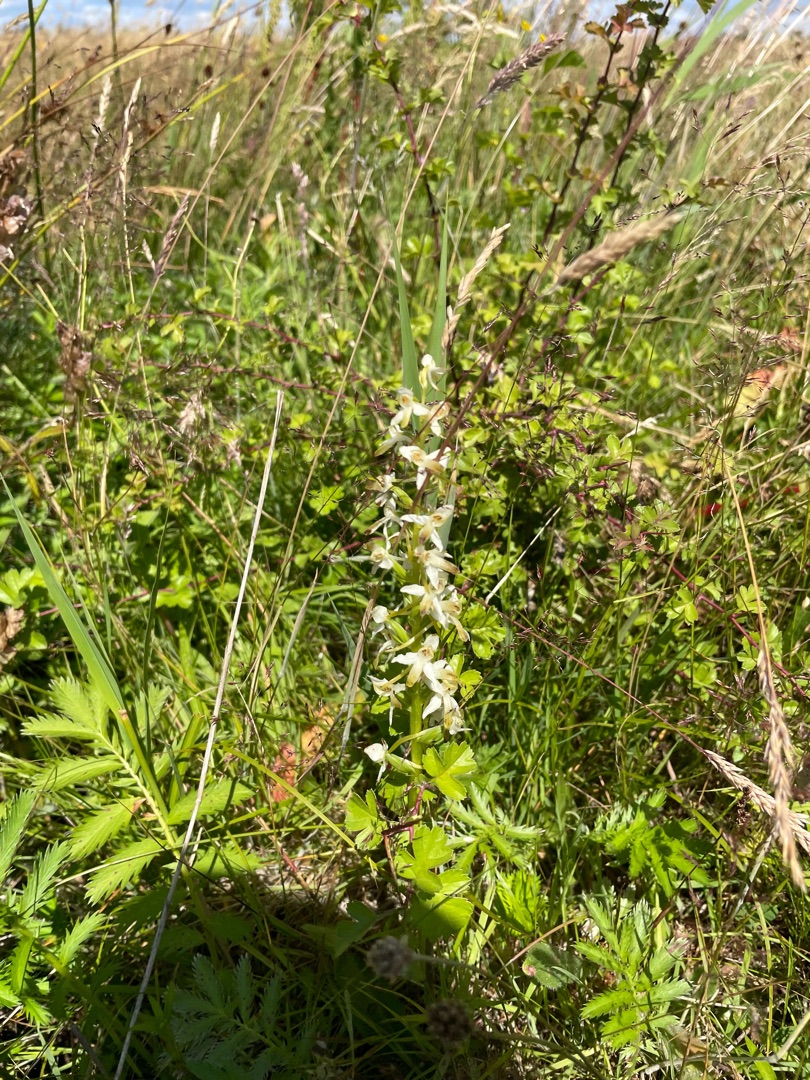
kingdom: Plantae
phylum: Tracheophyta
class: Liliopsida
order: Asparagales
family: Orchidaceae
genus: Platanthera
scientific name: Platanthera bifolia
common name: Bakke-gøgelilje
